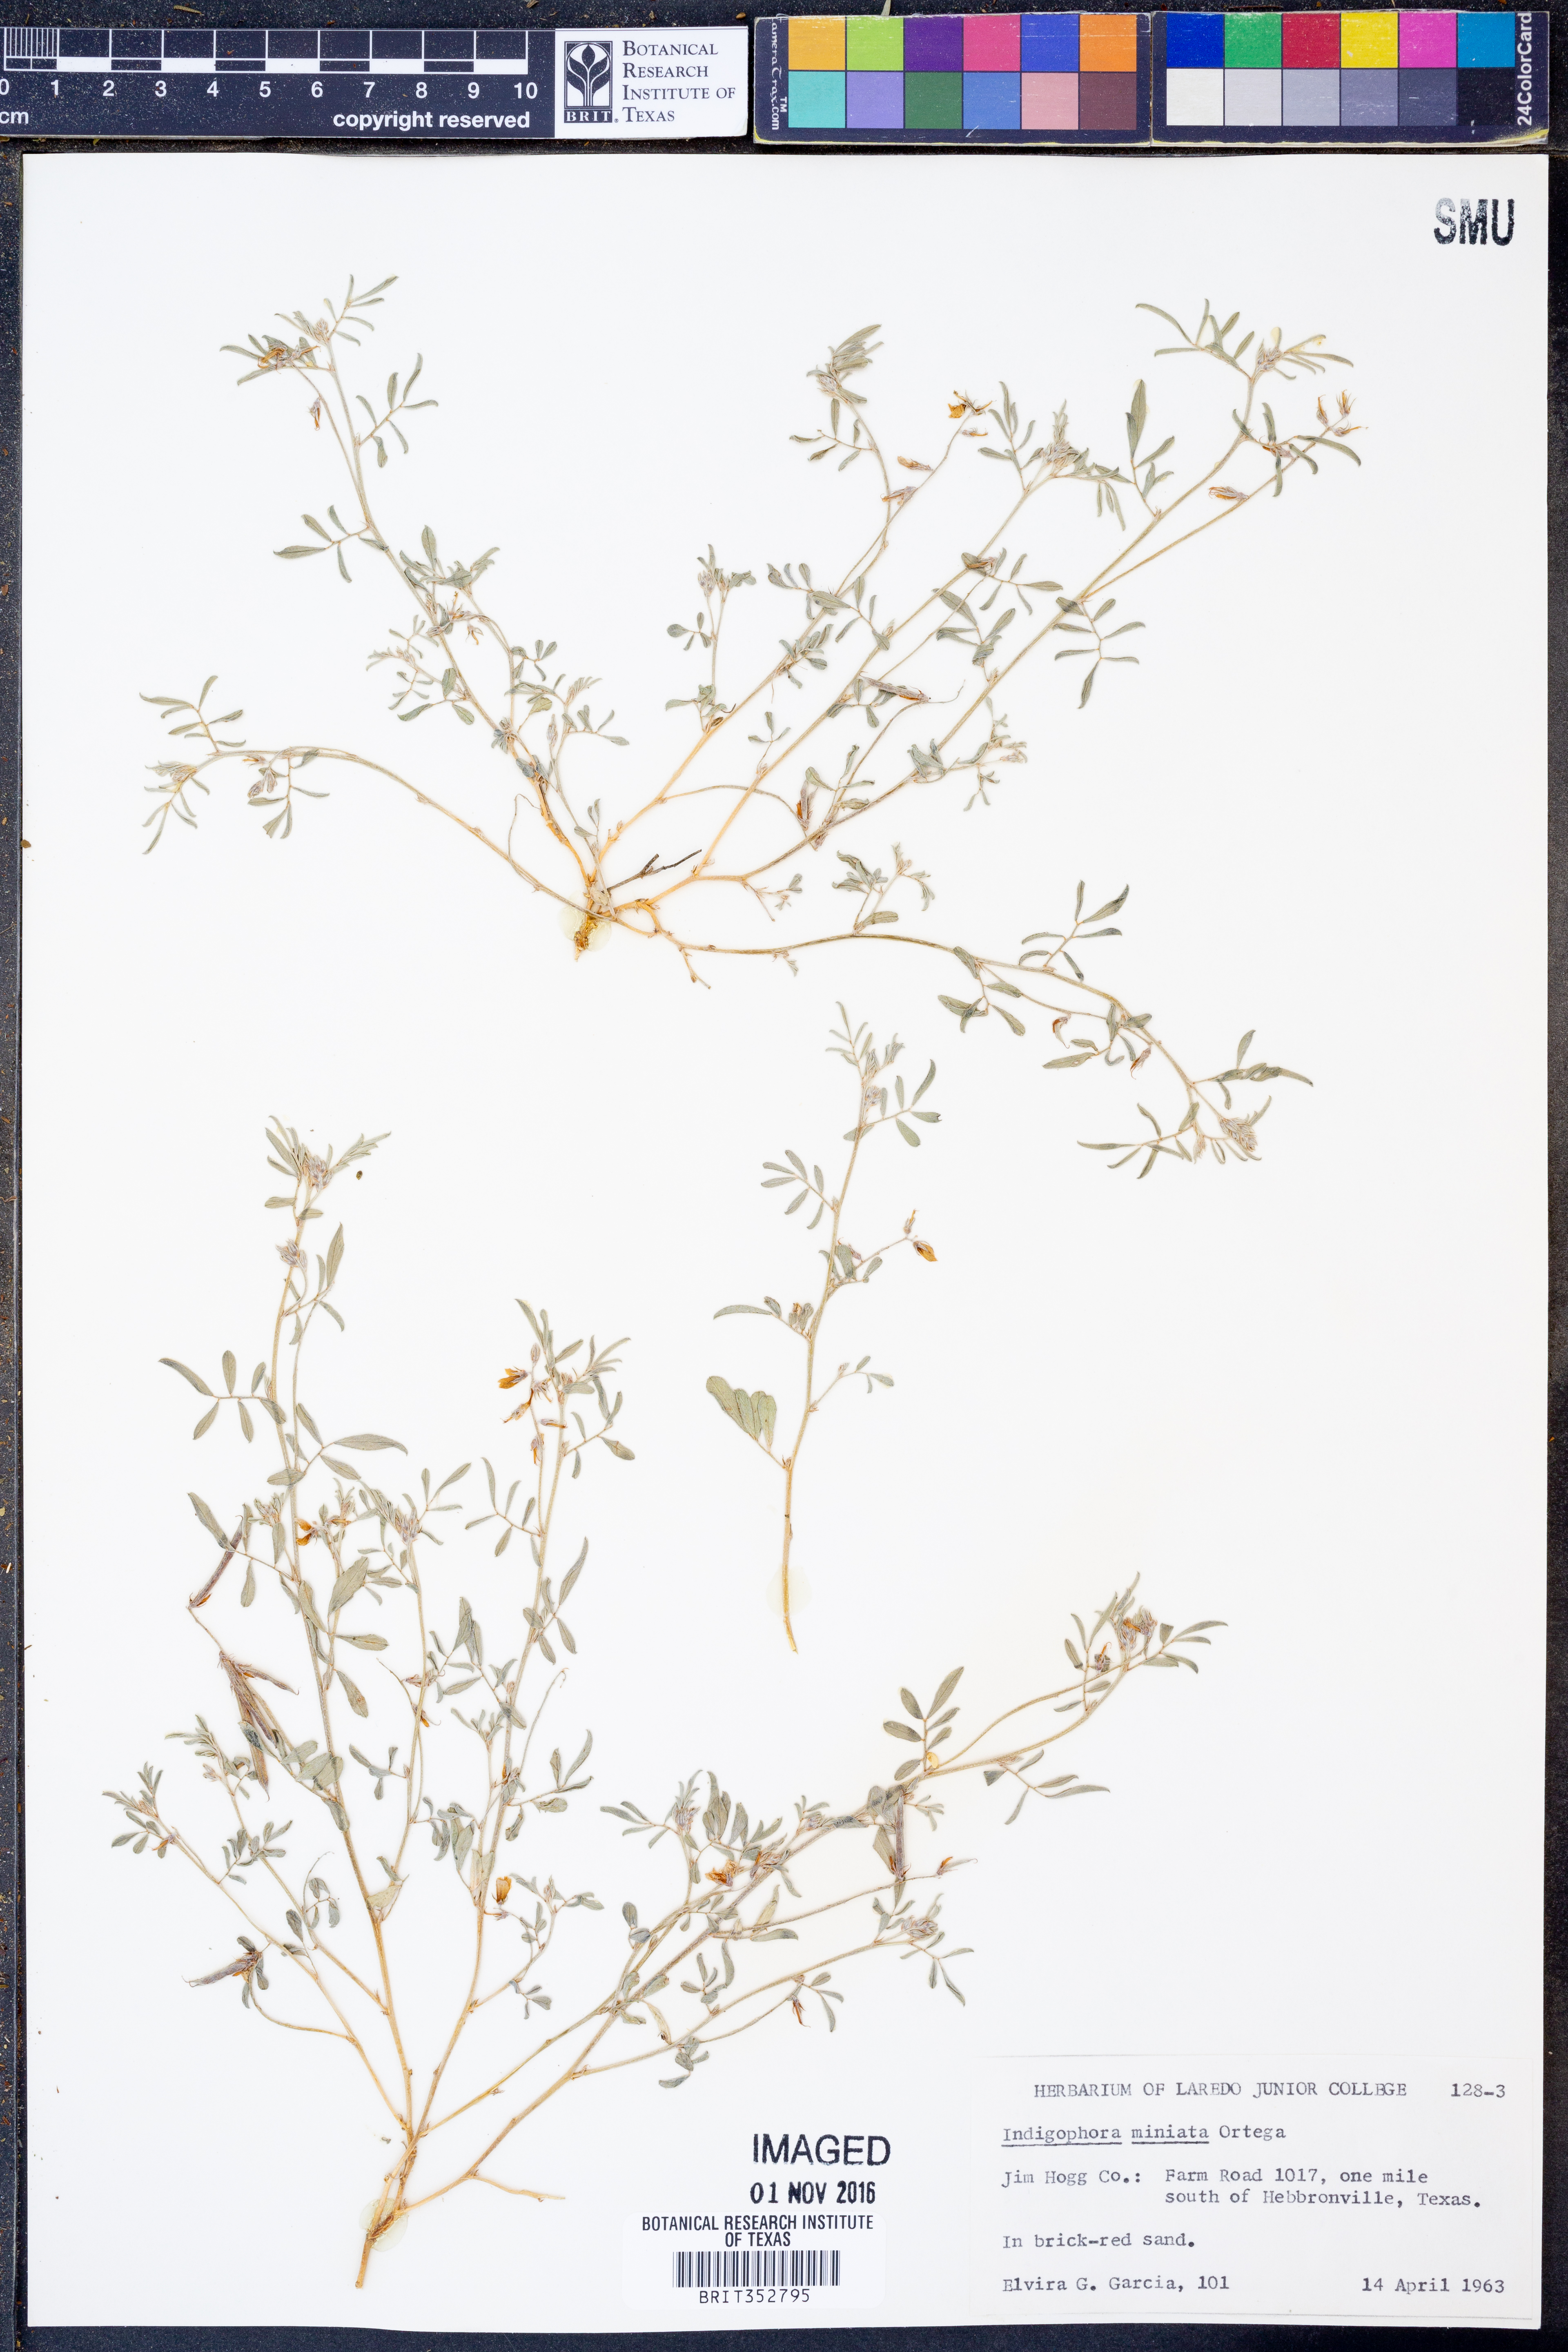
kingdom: Plantae
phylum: Tracheophyta
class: Magnoliopsida
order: Fabales
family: Fabaceae
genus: Indigofera
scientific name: Indigofera miniata
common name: Coast indigo
